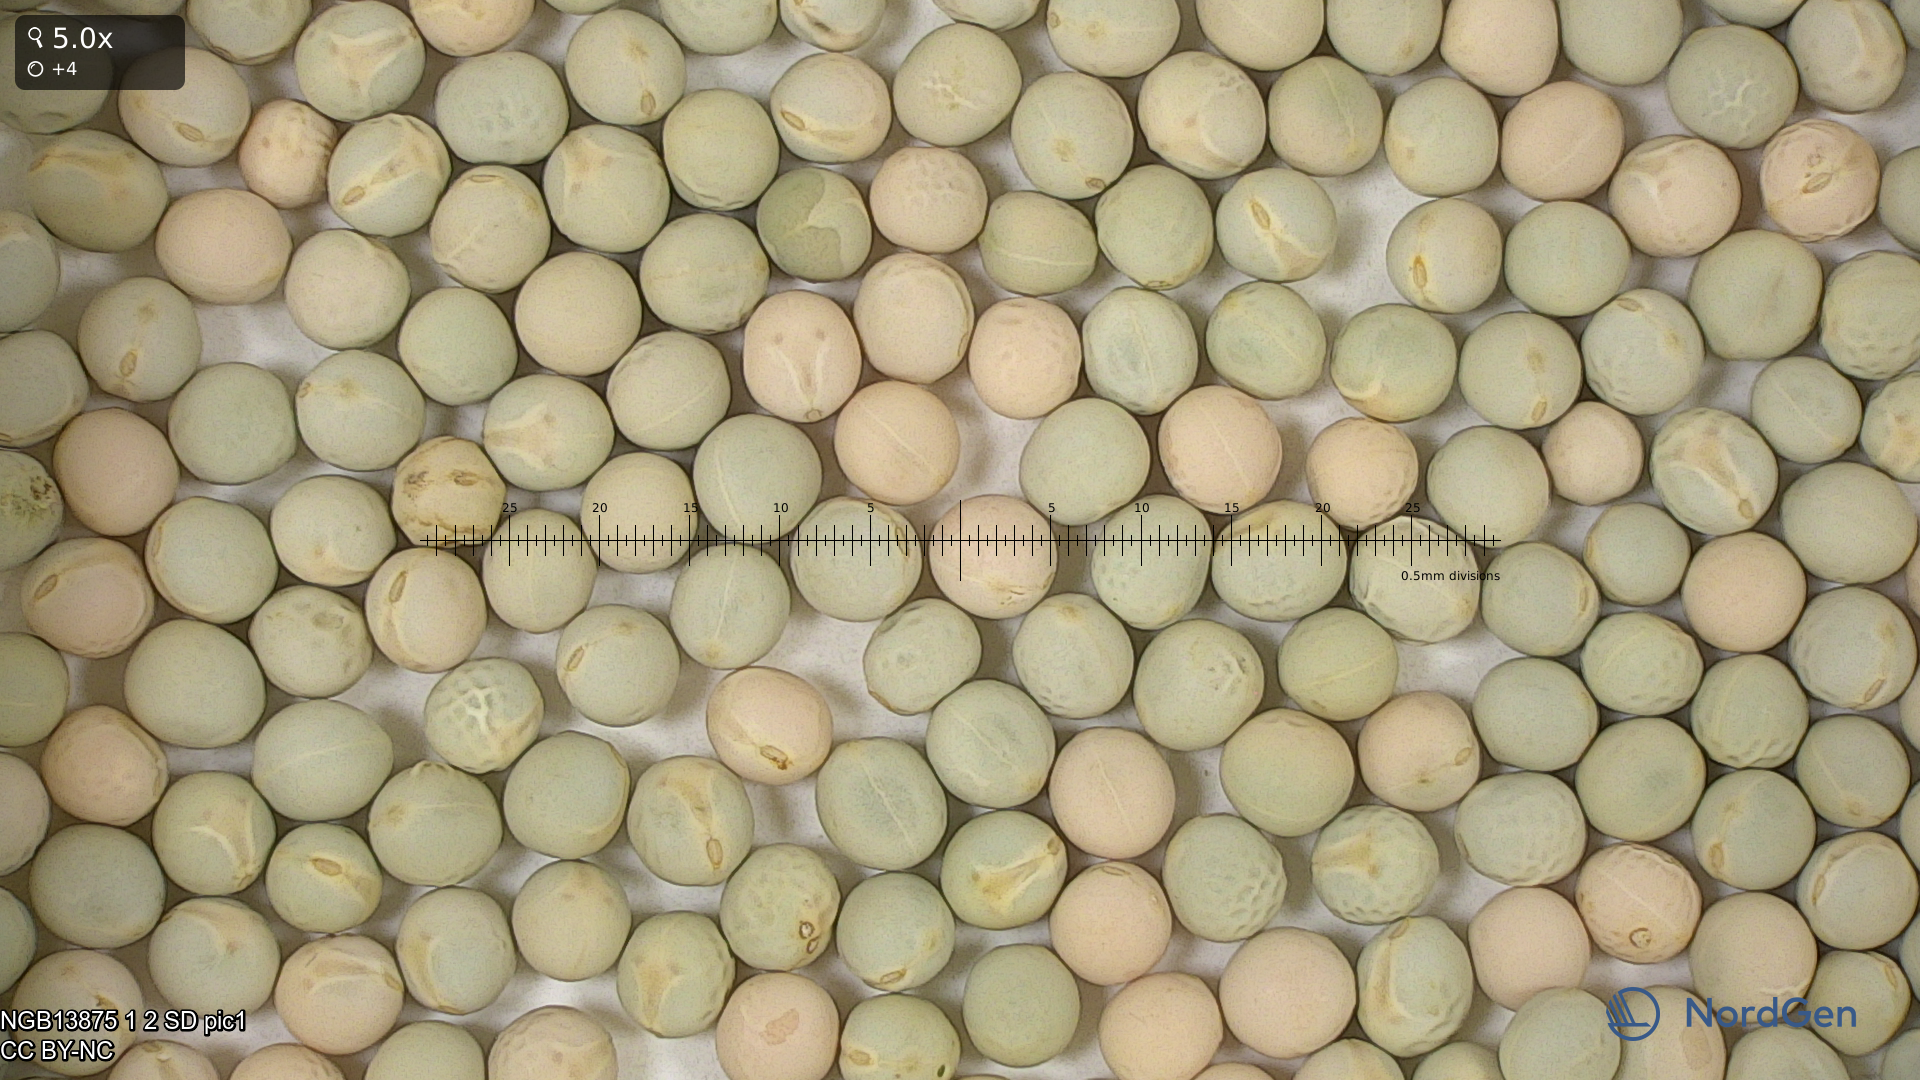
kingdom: Plantae
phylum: Tracheophyta
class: Magnoliopsida
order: Fabales
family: Fabaceae
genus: Lathyrus
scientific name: Lathyrus oleraceus
